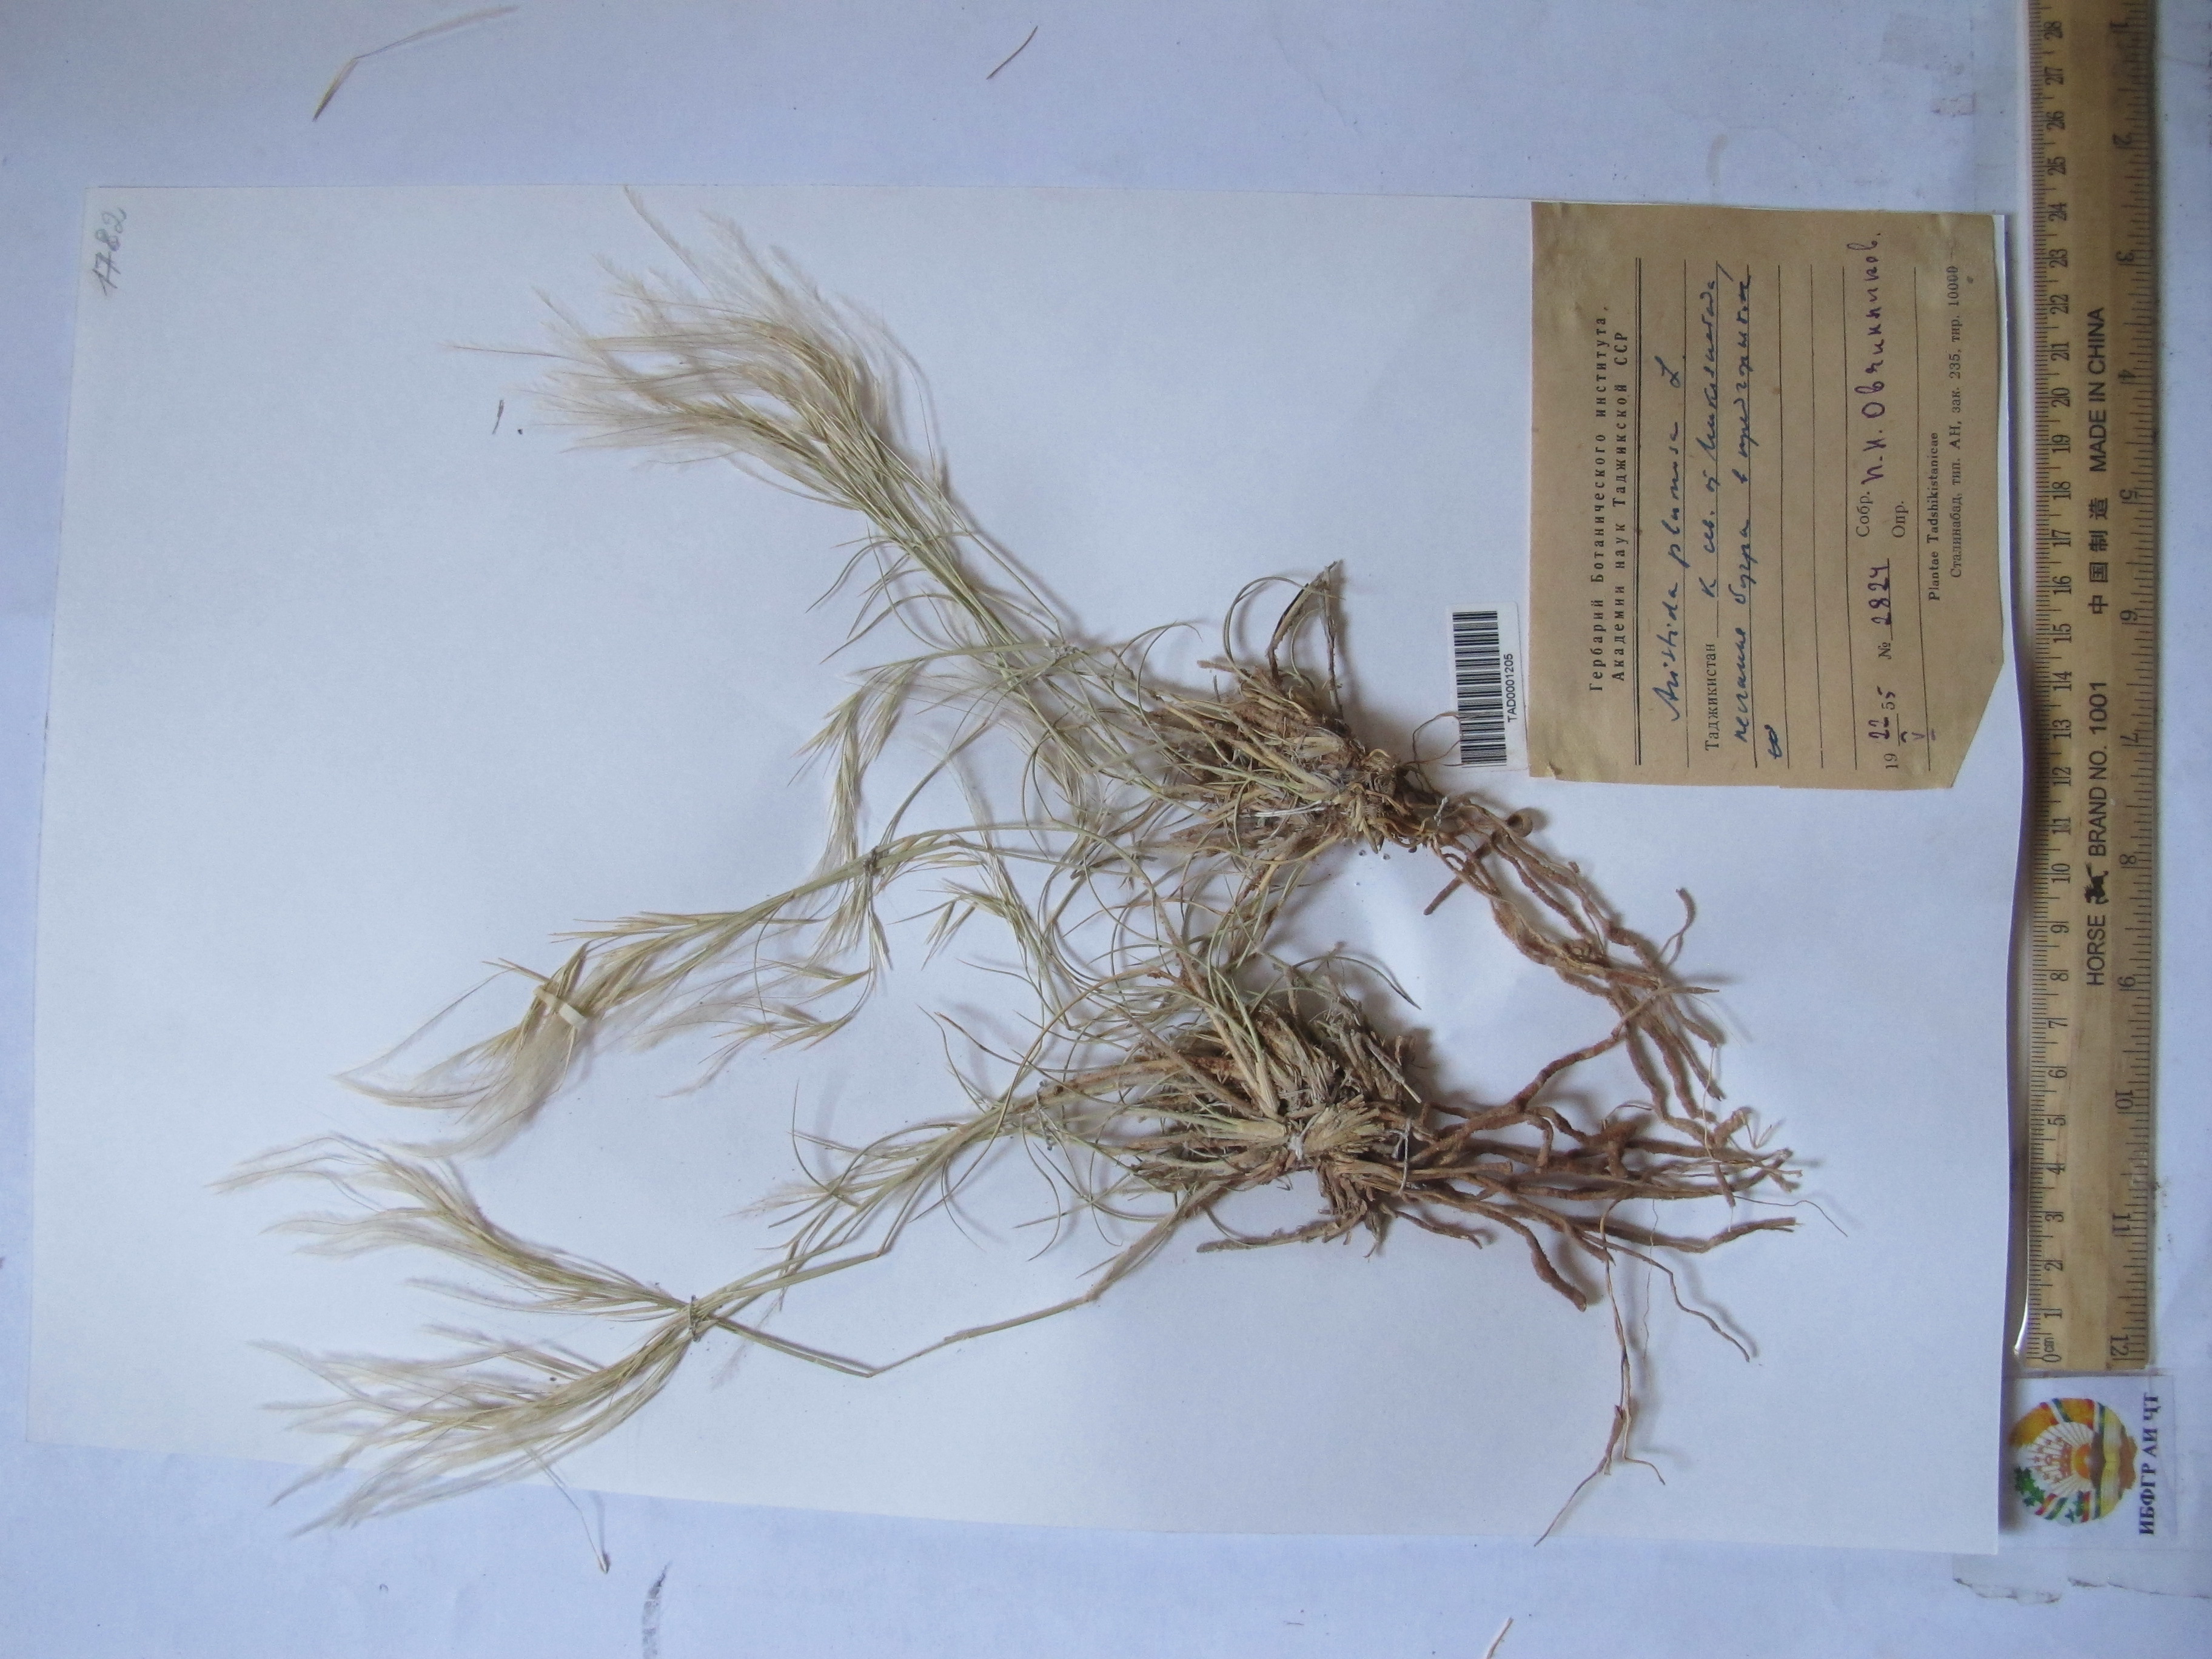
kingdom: Plantae
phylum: Tracheophyta
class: Liliopsida
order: Poales
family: Poaceae
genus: Stipagrostis
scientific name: Stipagrostis plumosa
